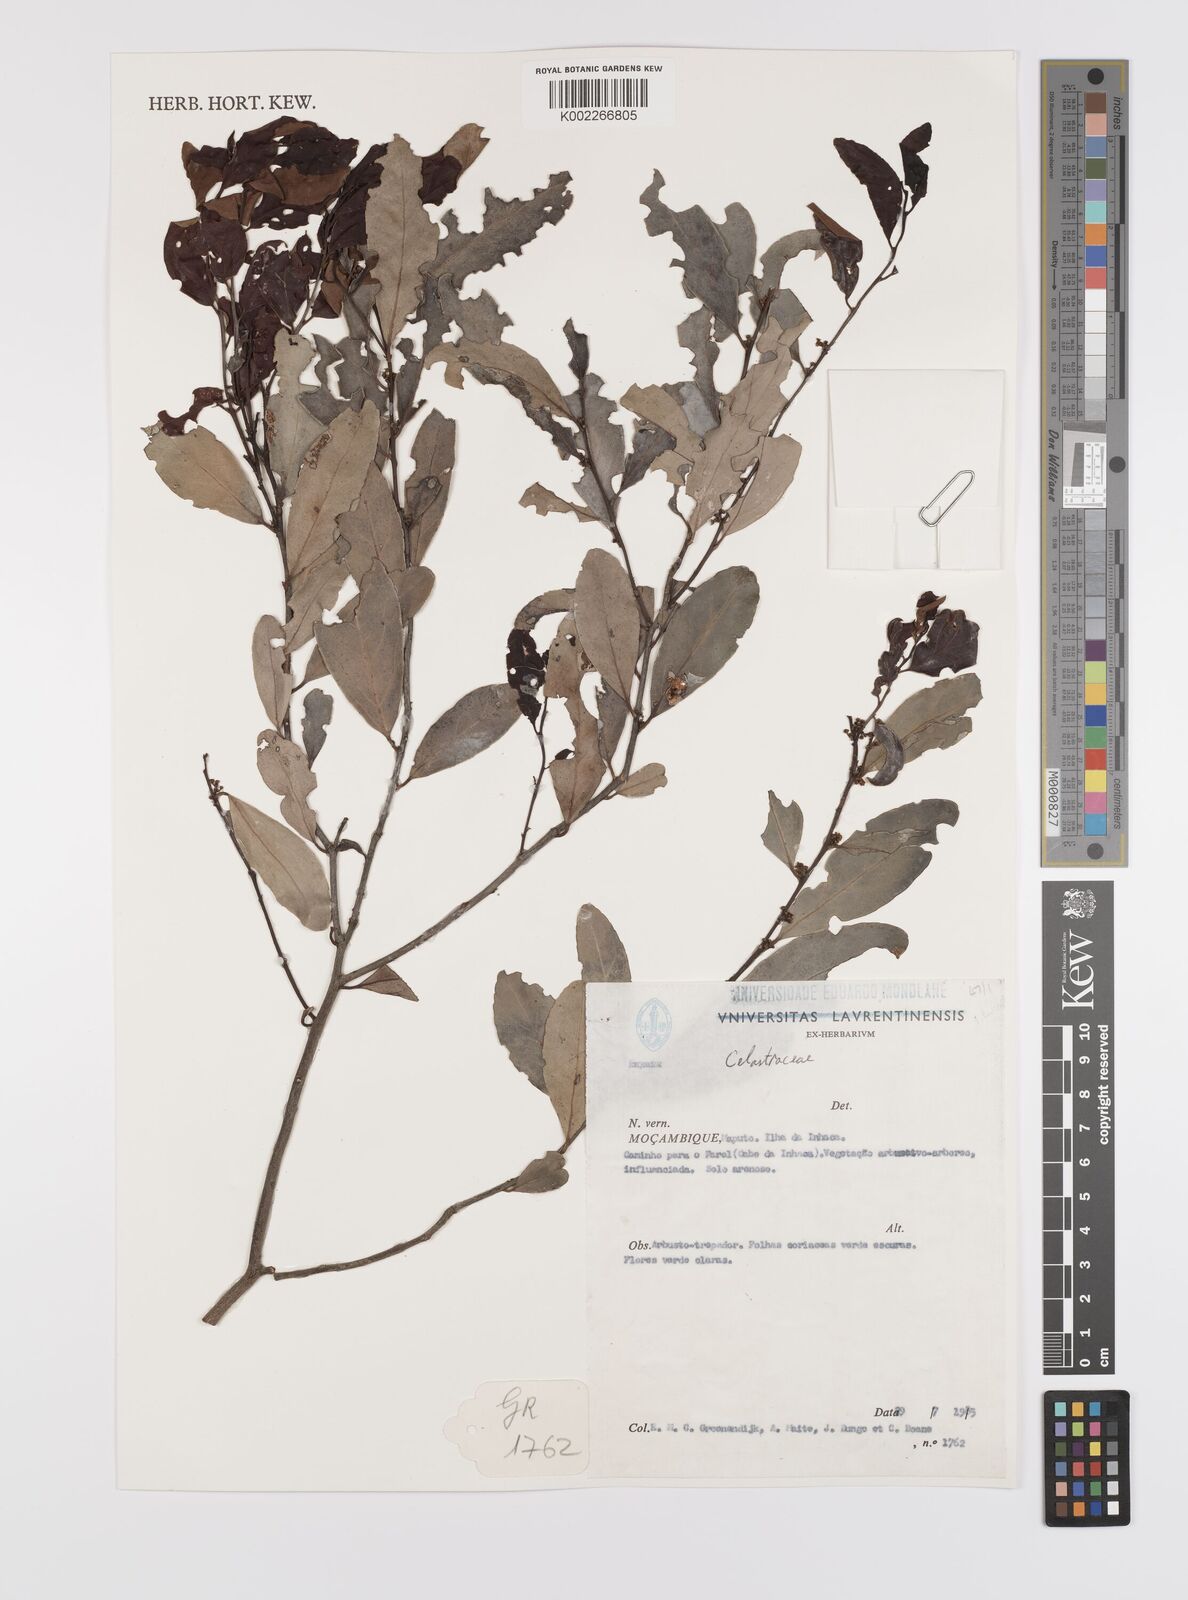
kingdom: Plantae
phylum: Tracheophyta
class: Magnoliopsida
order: Celastrales
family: Celastraceae
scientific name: Celastraceae
